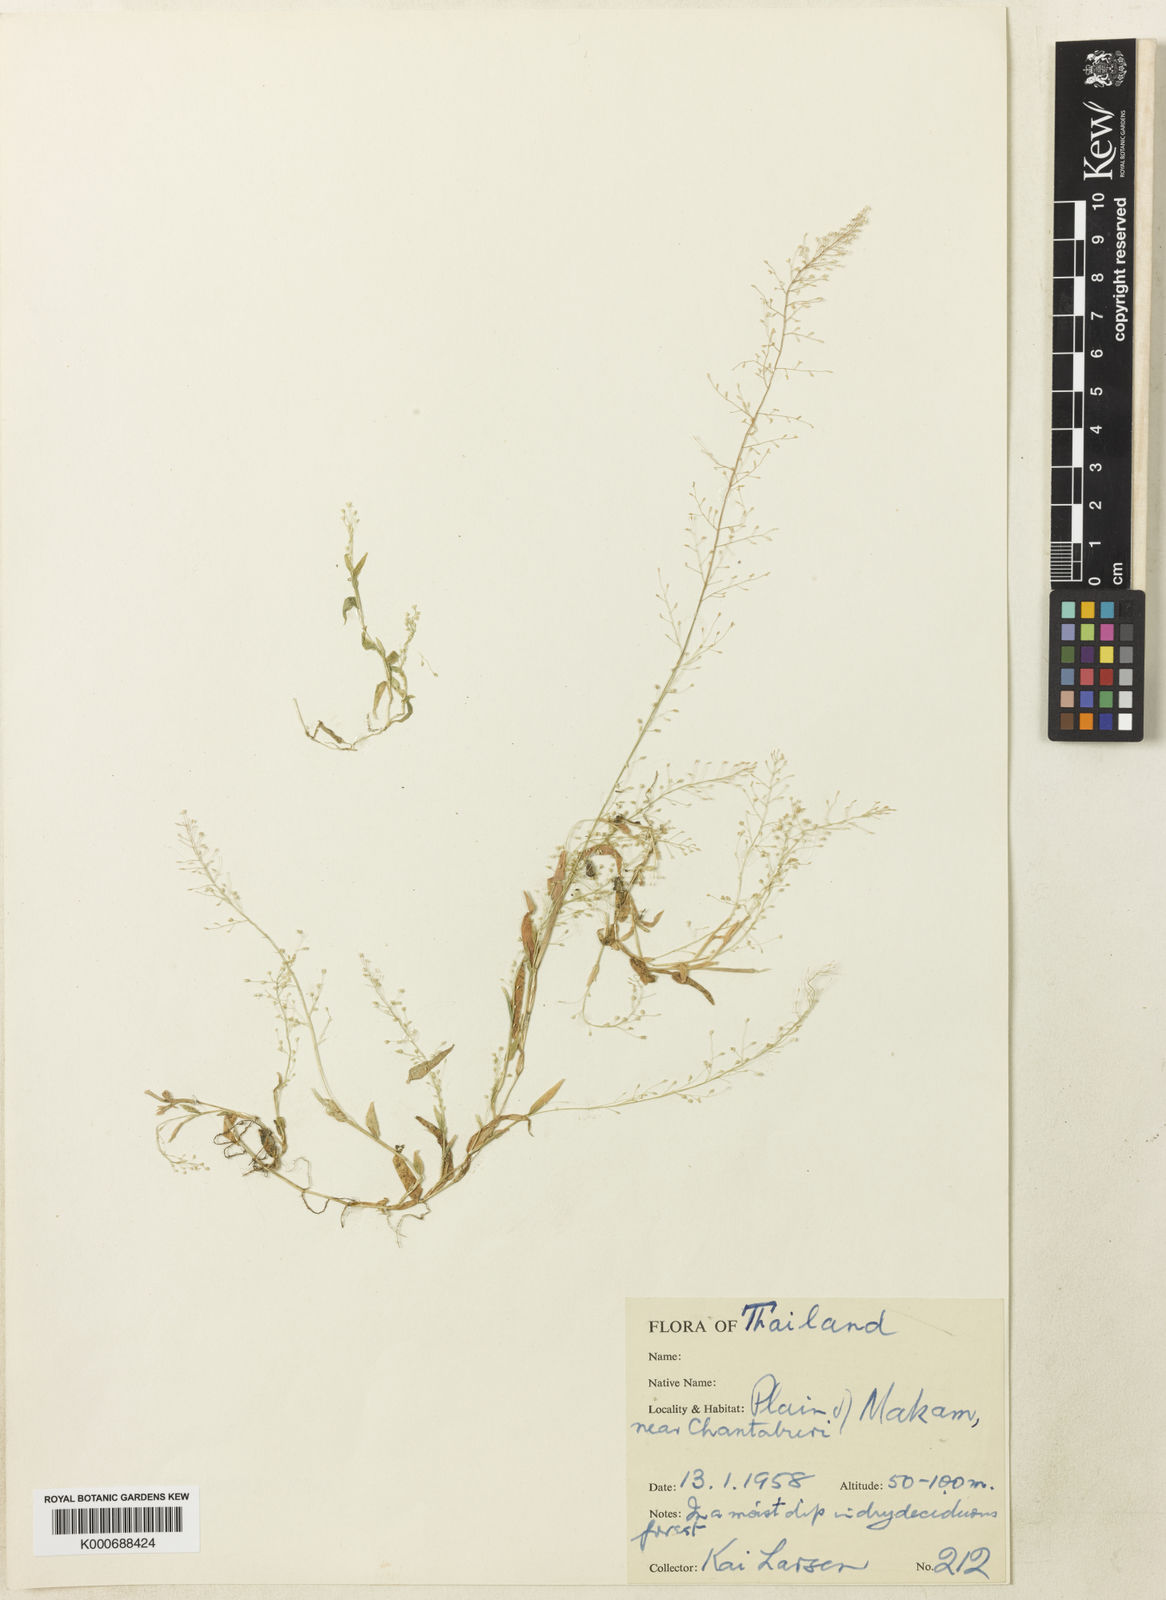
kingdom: Plantae
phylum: Tracheophyta
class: Liliopsida
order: Poales
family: Poaceae
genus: Coelachne
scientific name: Coelachne soerensenii
